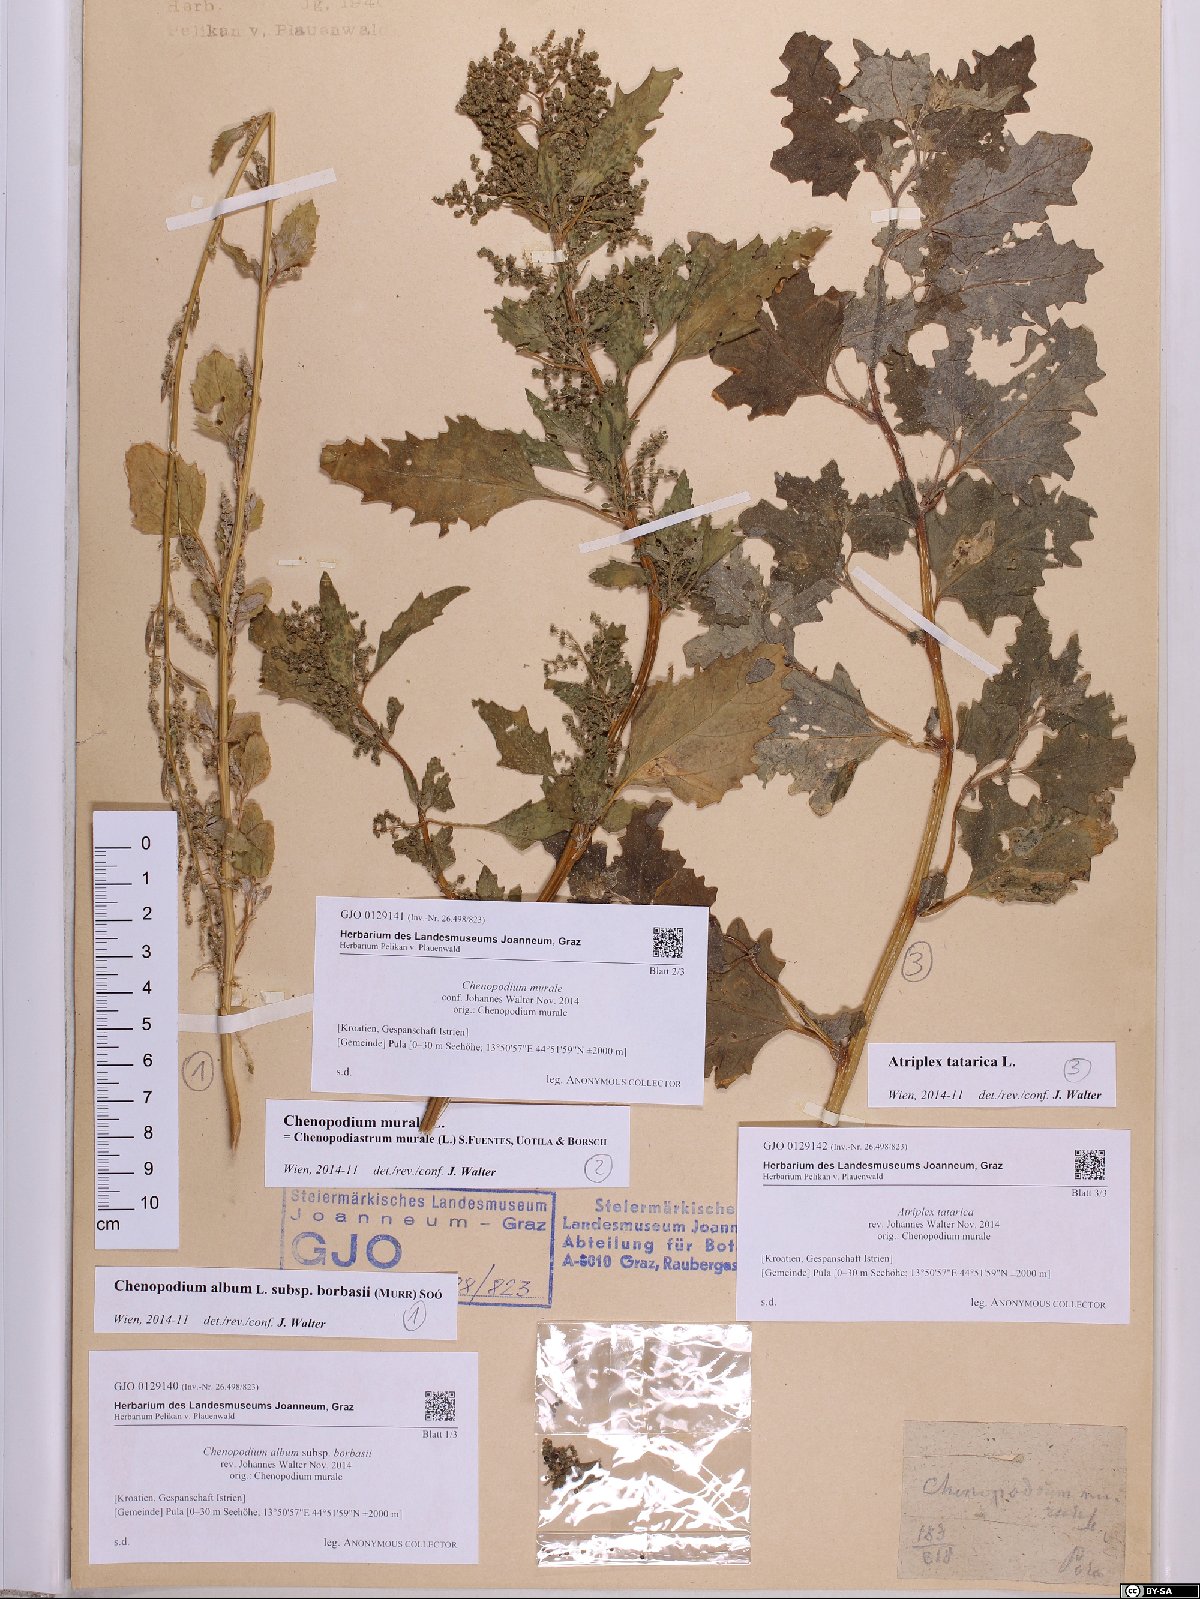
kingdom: Plantae
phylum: Tracheophyta
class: Magnoliopsida
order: Caryophyllales
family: Amaranthaceae
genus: Chenopodiastrum
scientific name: Chenopodiastrum murale
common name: Sowbane
